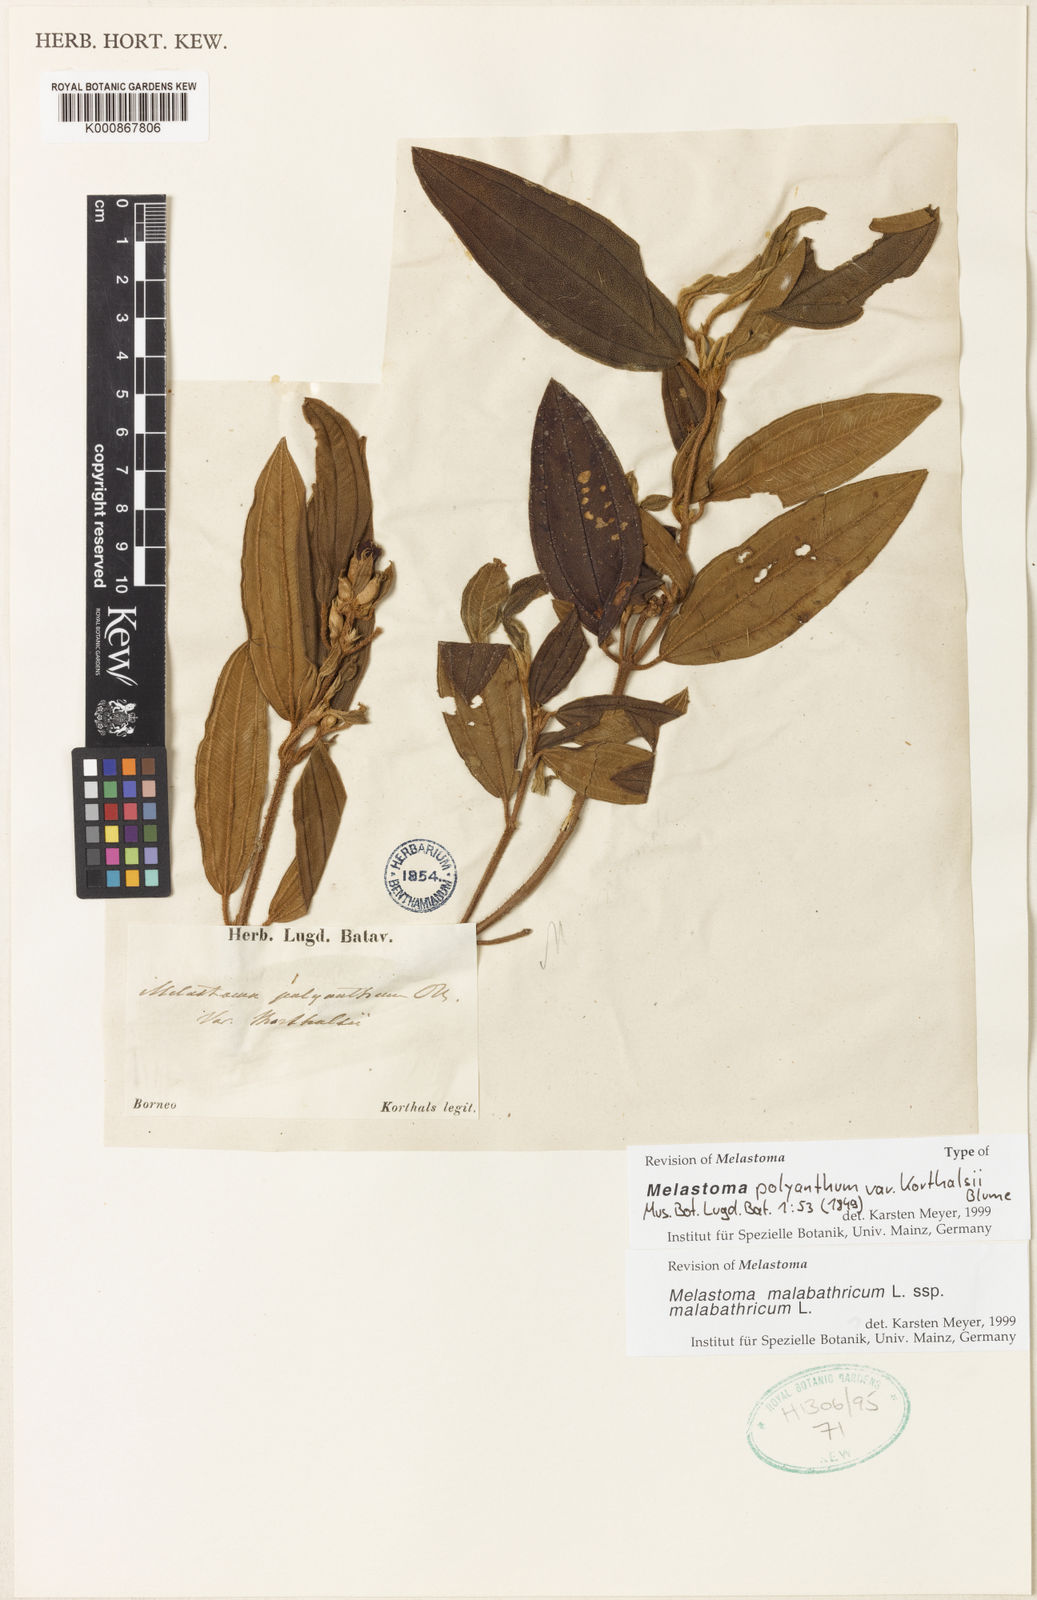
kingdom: Plantae
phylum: Tracheophyta
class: Magnoliopsida
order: Myrtales
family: Melastomataceae
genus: Melastoma
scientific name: Melastoma malabathricum
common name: Indian-rhododendron
